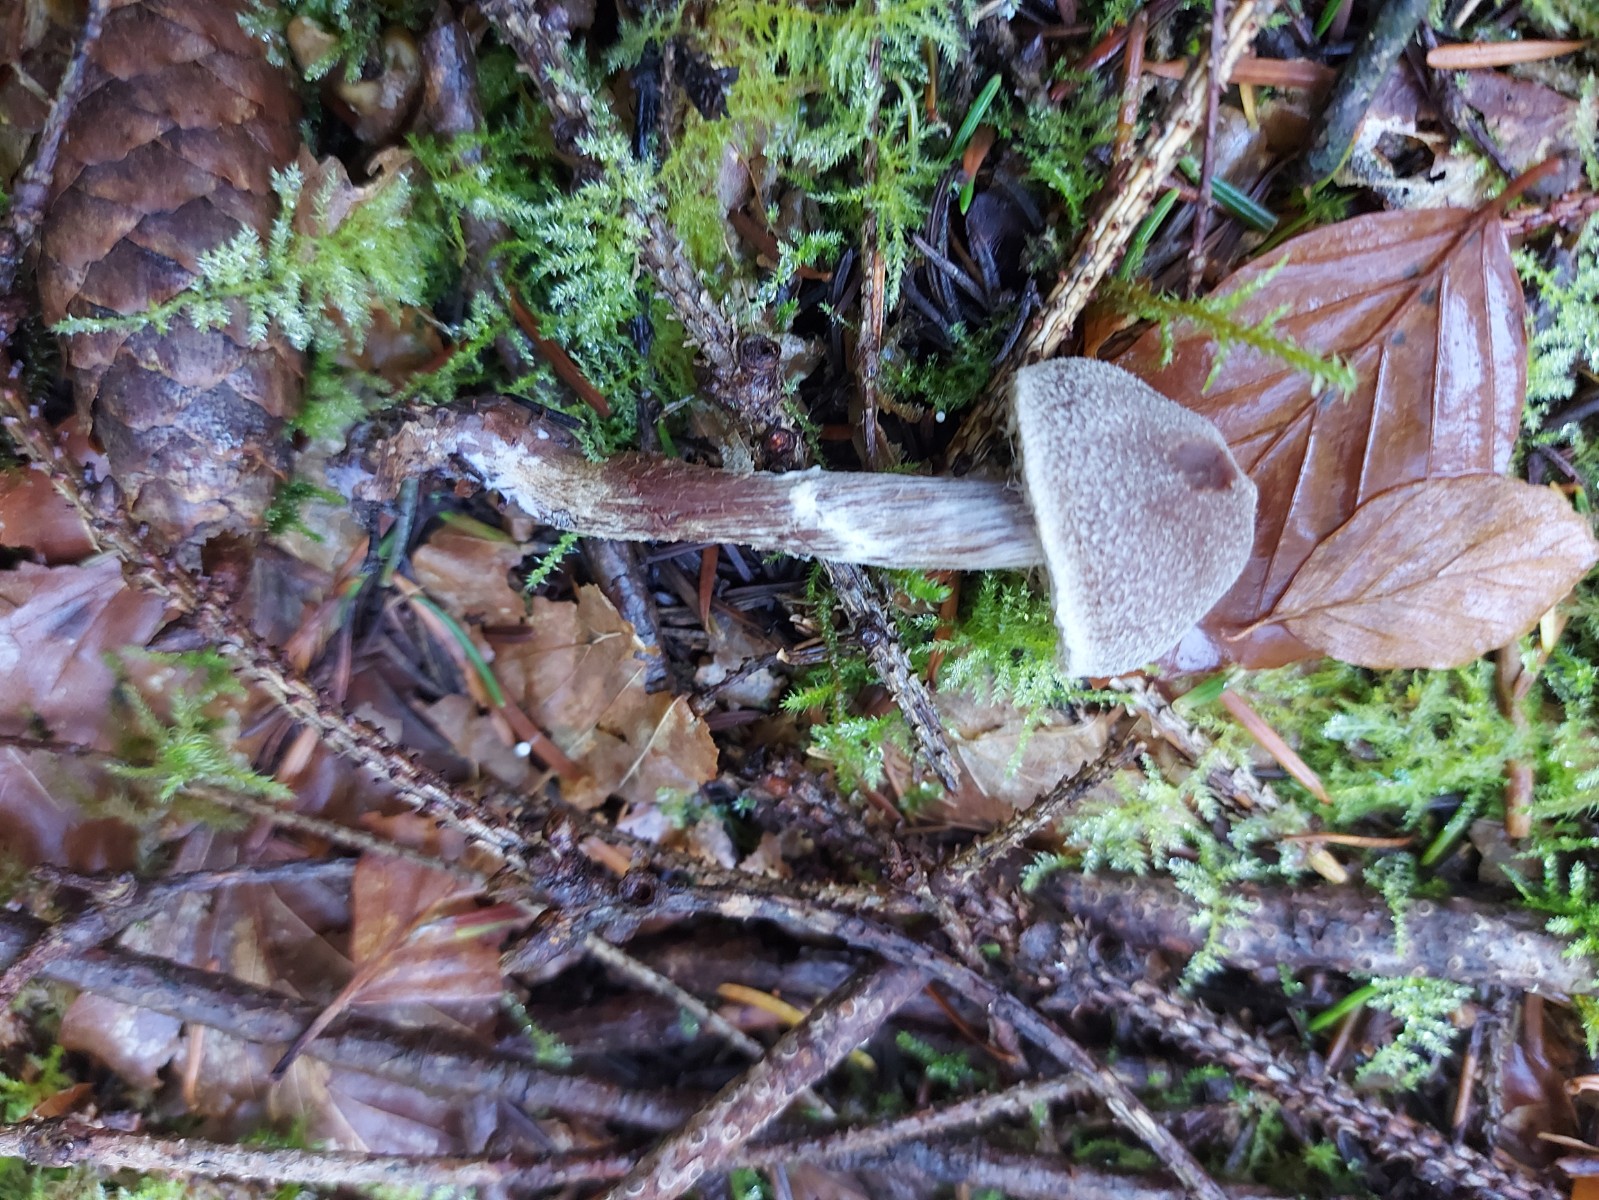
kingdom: Fungi
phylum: Basidiomycota
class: Agaricomycetes
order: Agaricales
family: Cortinariaceae
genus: Cortinarius
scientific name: Cortinarius flexipes
